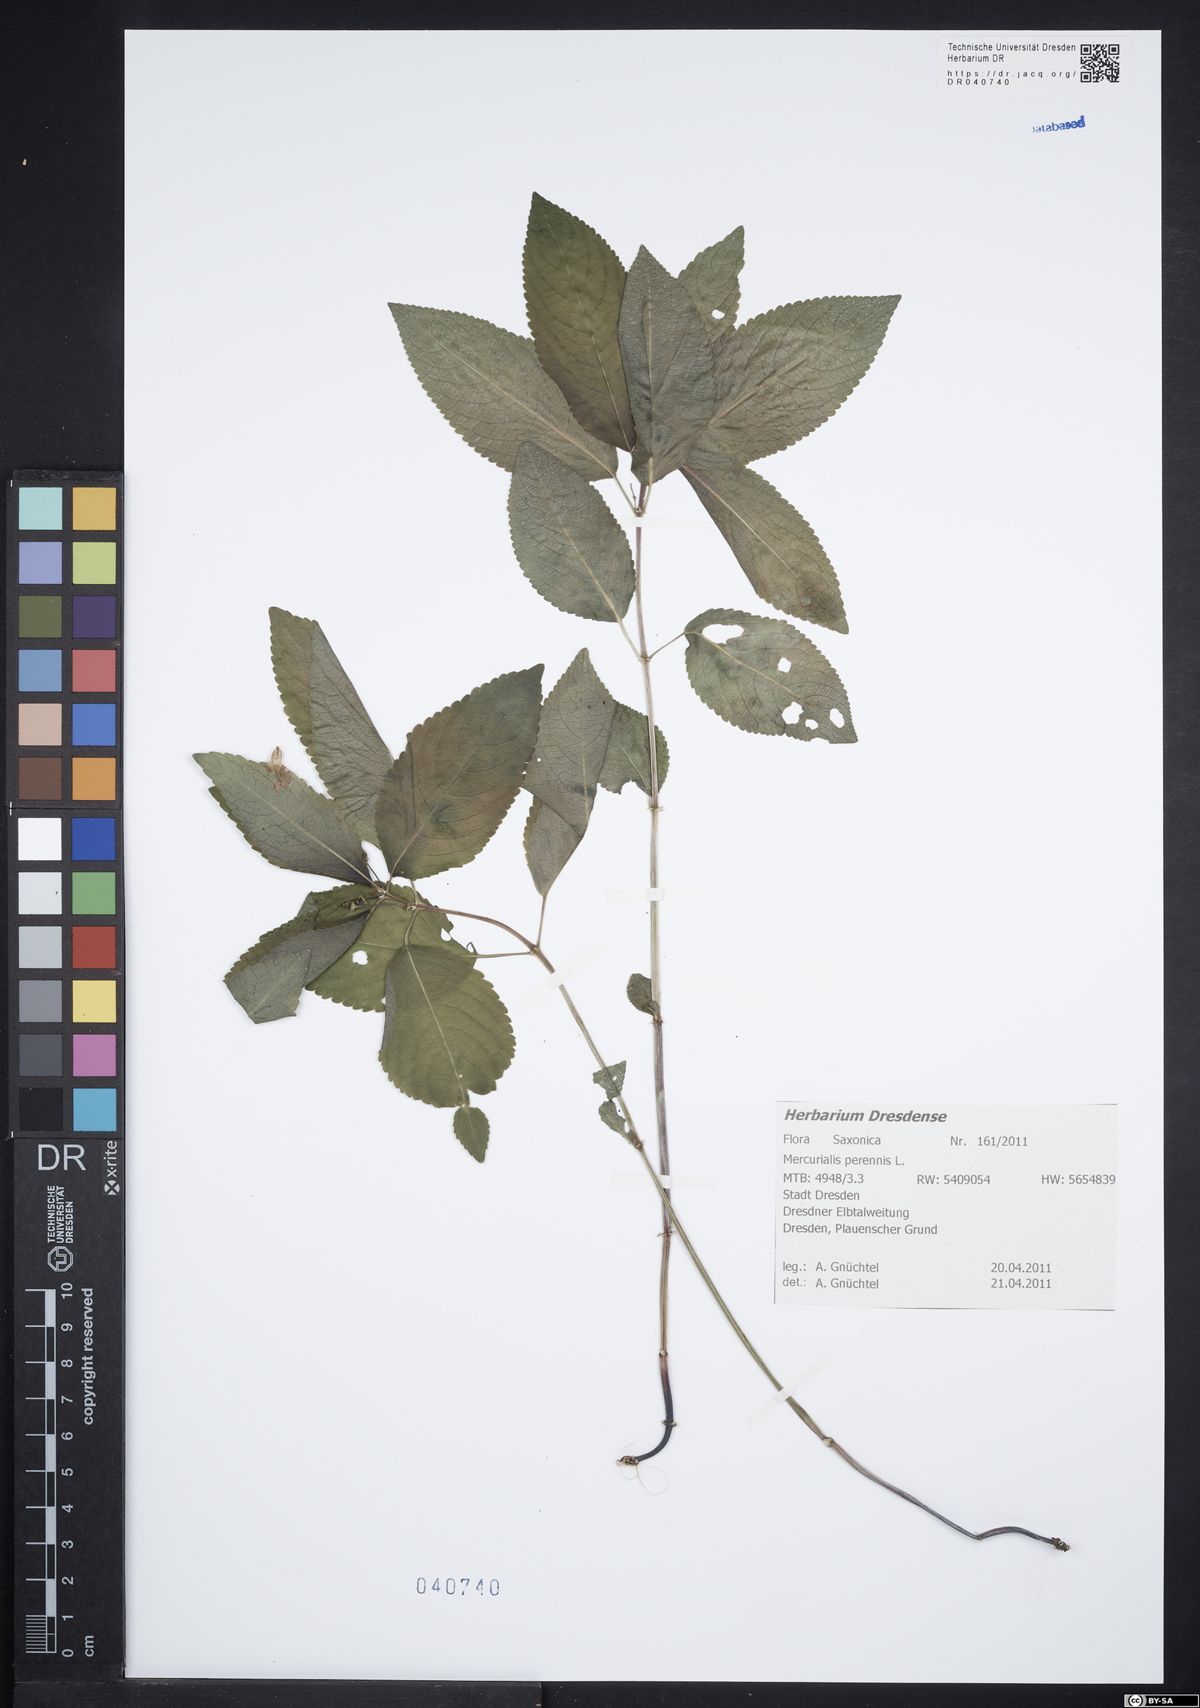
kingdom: Plantae
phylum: Tracheophyta
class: Magnoliopsida
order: Malpighiales
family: Euphorbiaceae
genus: Mercurialis
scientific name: Mercurialis perennis
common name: Dog mercury
